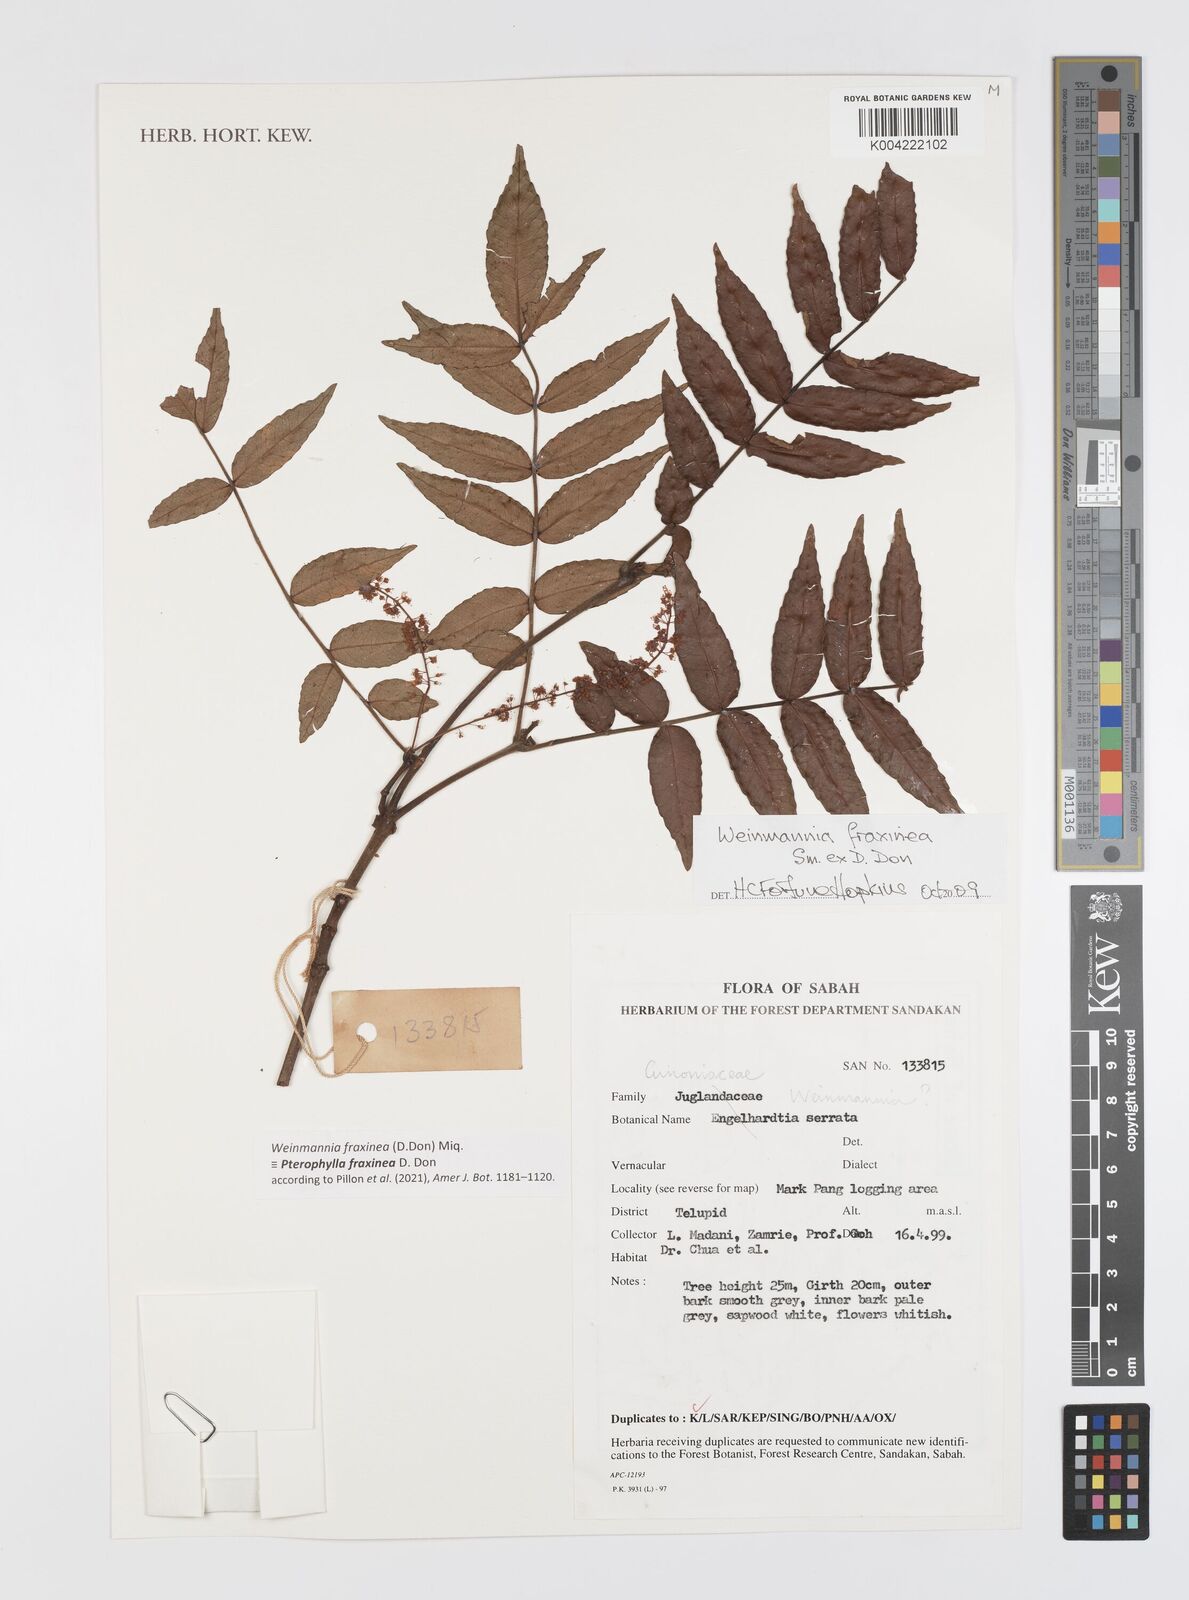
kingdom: Plantae
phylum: Tracheophyta
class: Magnoliopsida
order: Oxalidales
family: Cunoniaceae
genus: Pterophylla
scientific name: Pterophylla fraxinea
